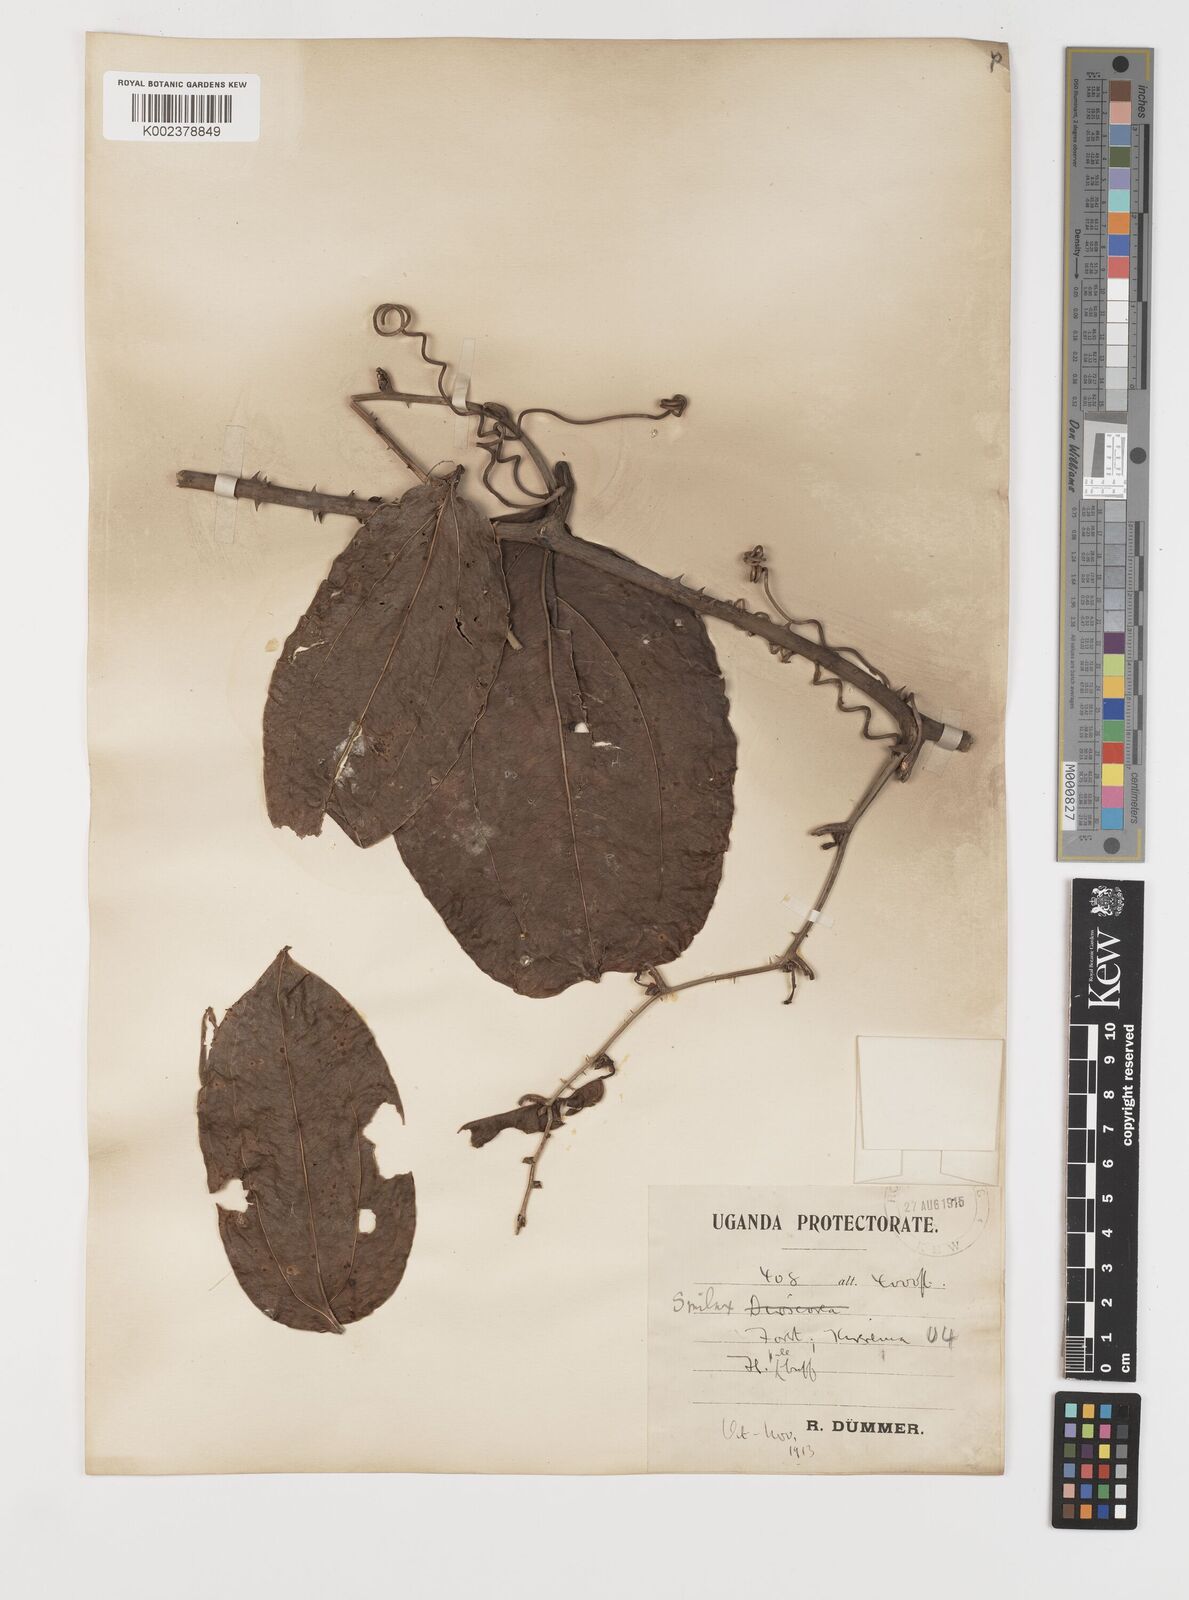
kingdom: Plantae
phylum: Tracheophyta
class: Liliopsida
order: Liliales
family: Smilacaceae
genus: Smilax
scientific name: Smilax anceps
